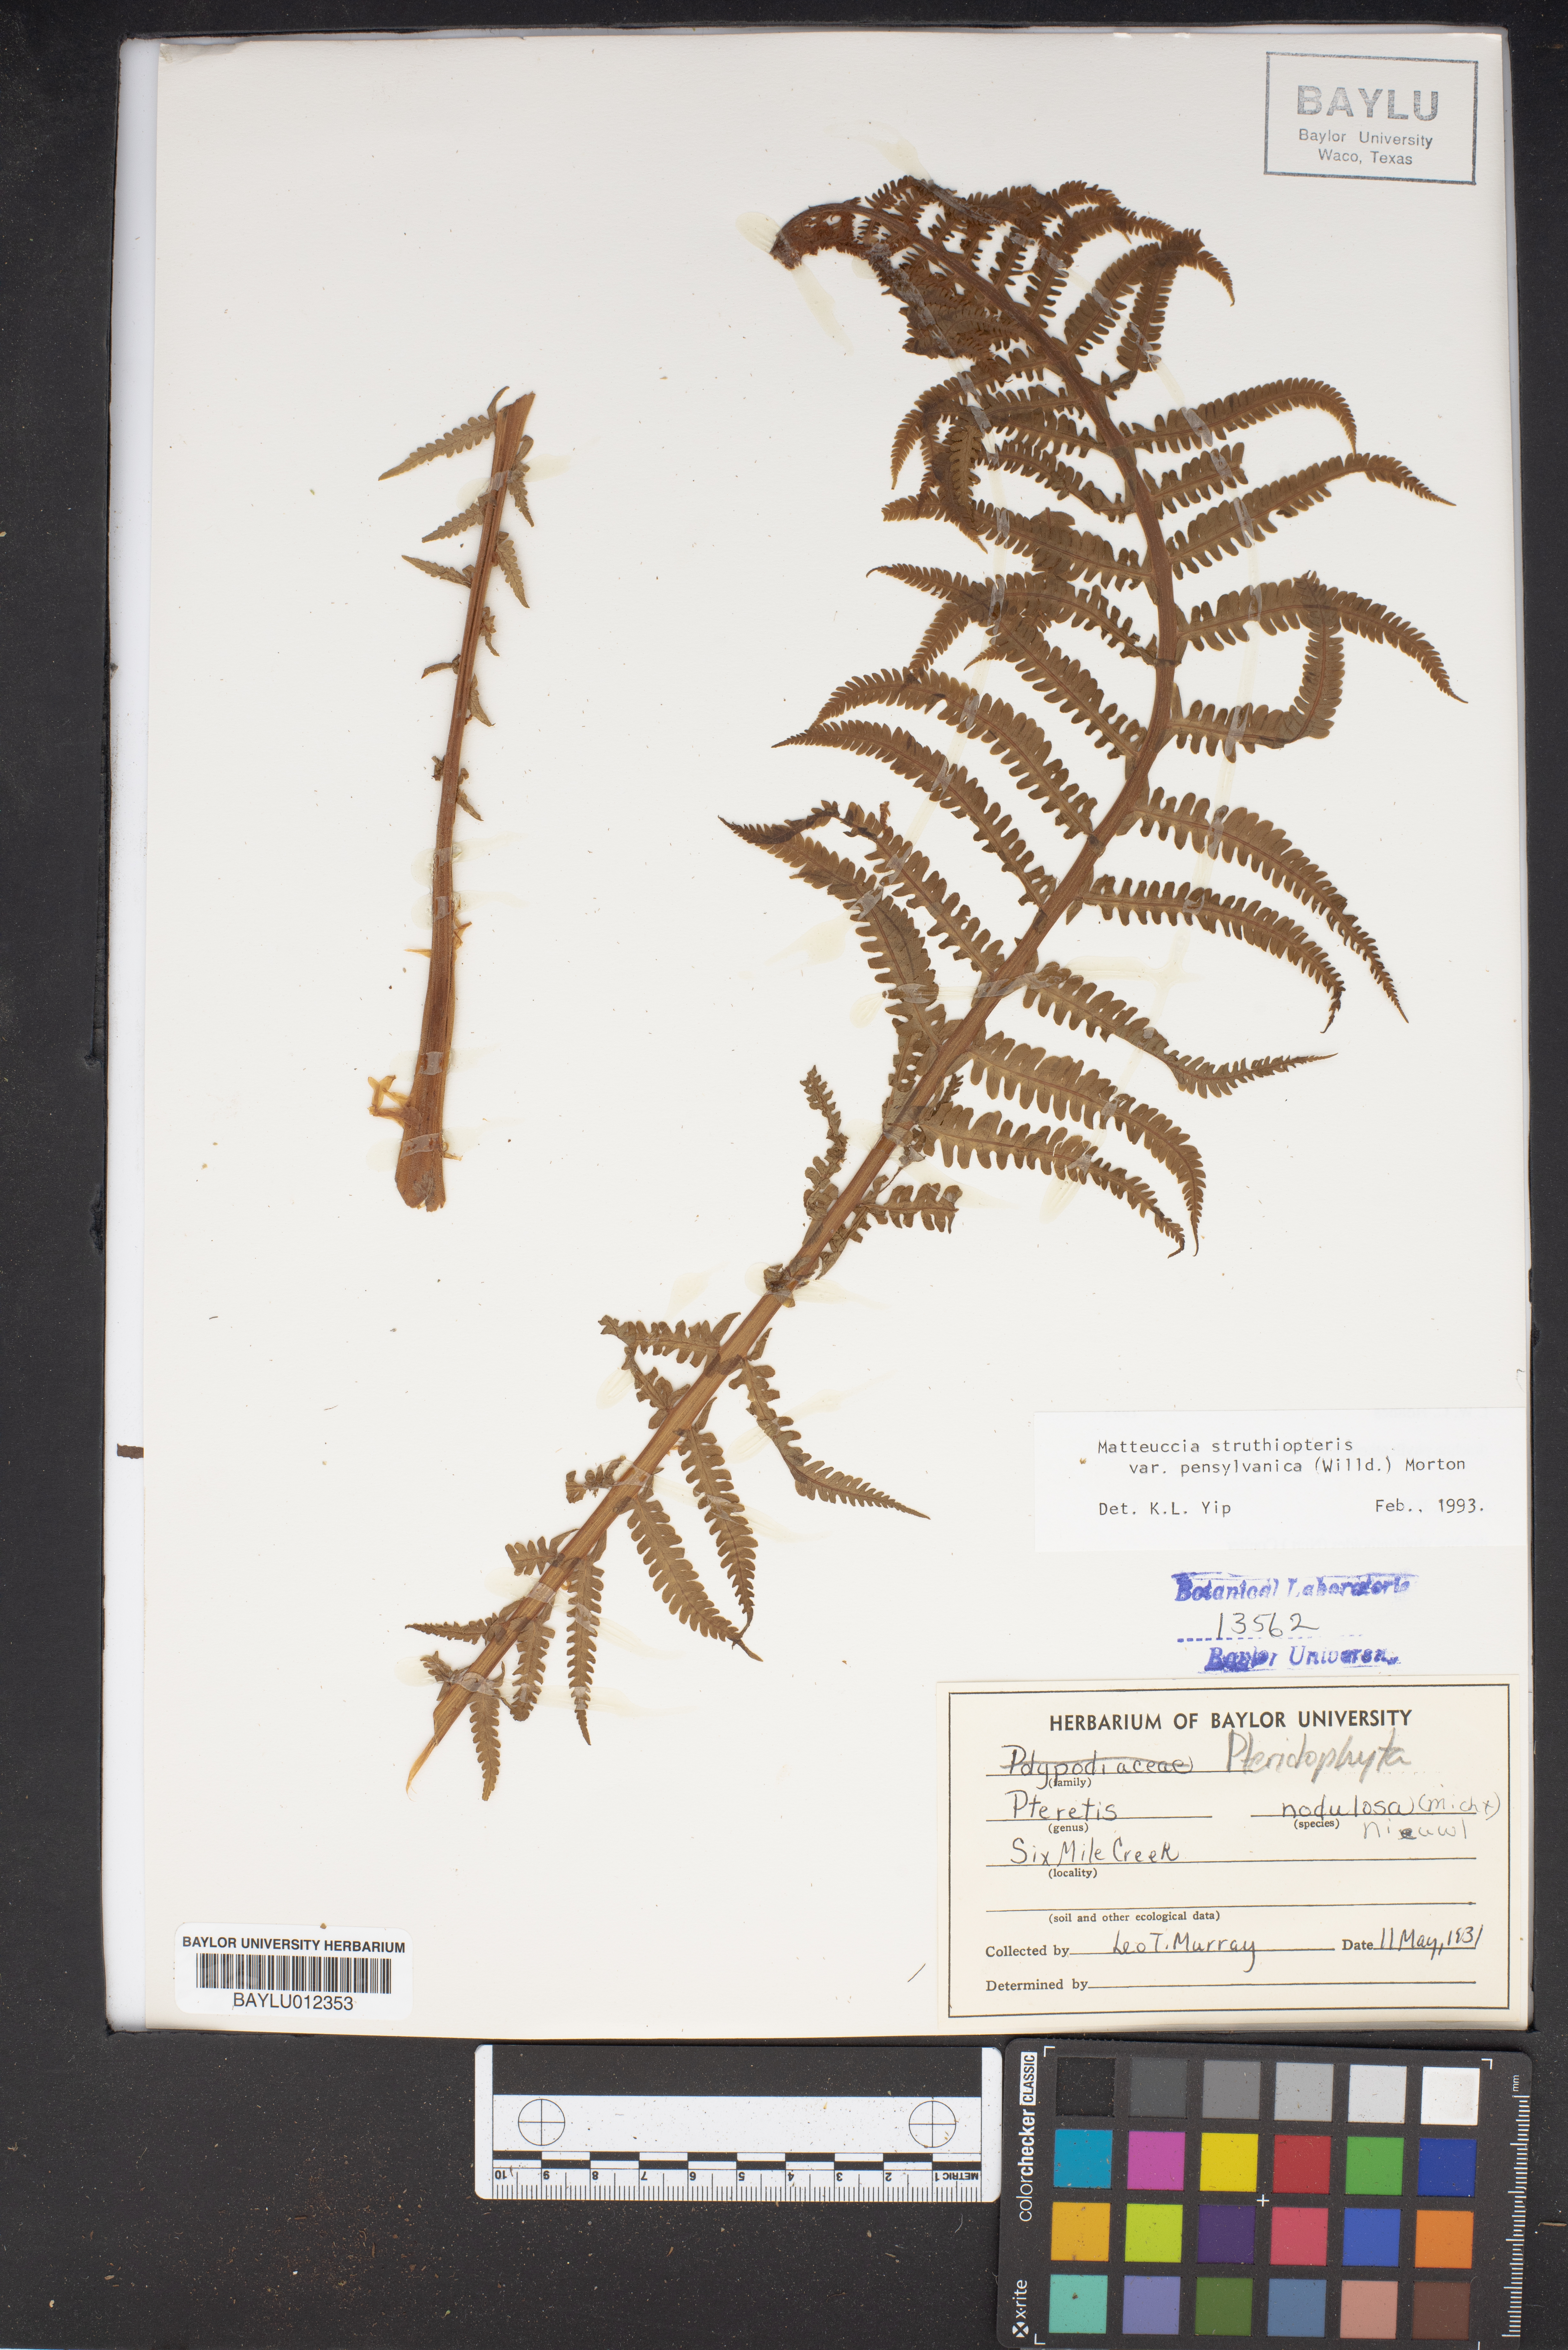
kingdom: Plantae
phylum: Tracheophyta
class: Polypodiopsida
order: Polypodiales
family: Onocleaceae
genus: Matteuccia
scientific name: Matteuccia struthiopteris
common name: Ostrich fern
